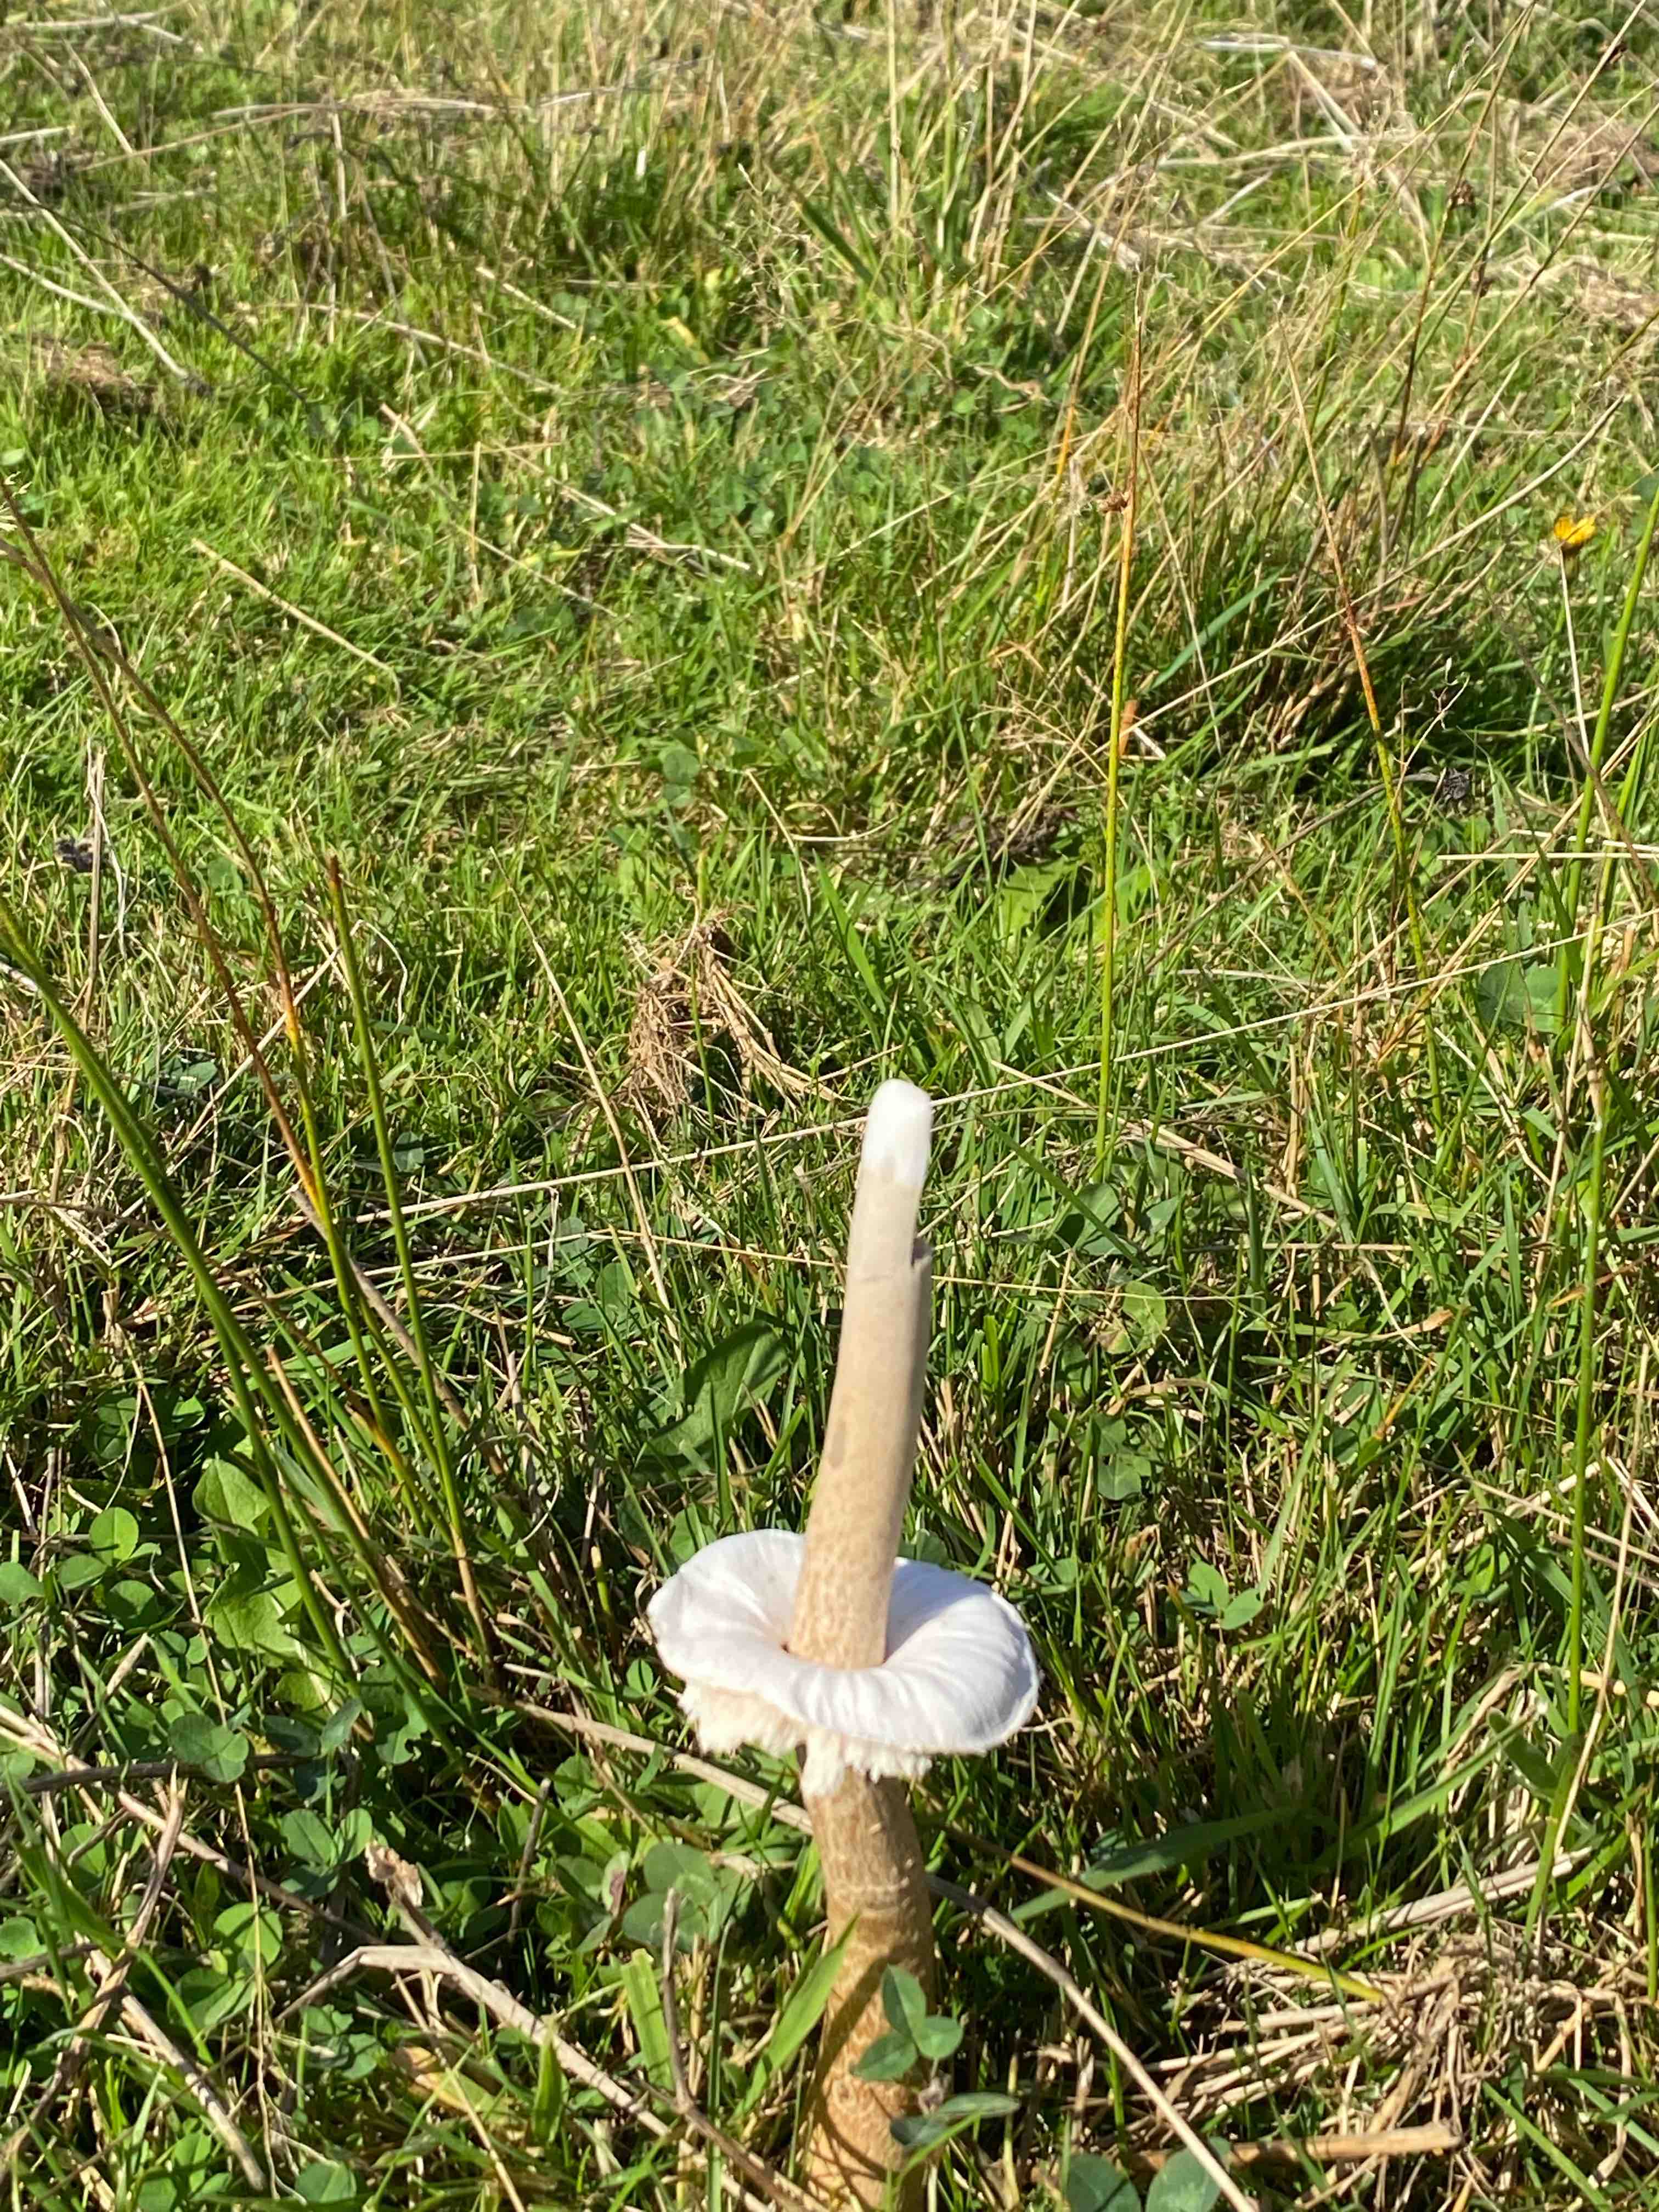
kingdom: Fungi
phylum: Basidiomycota
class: Agaricomycetes
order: Agaricales
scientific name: Agaricales
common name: champignonordenen
